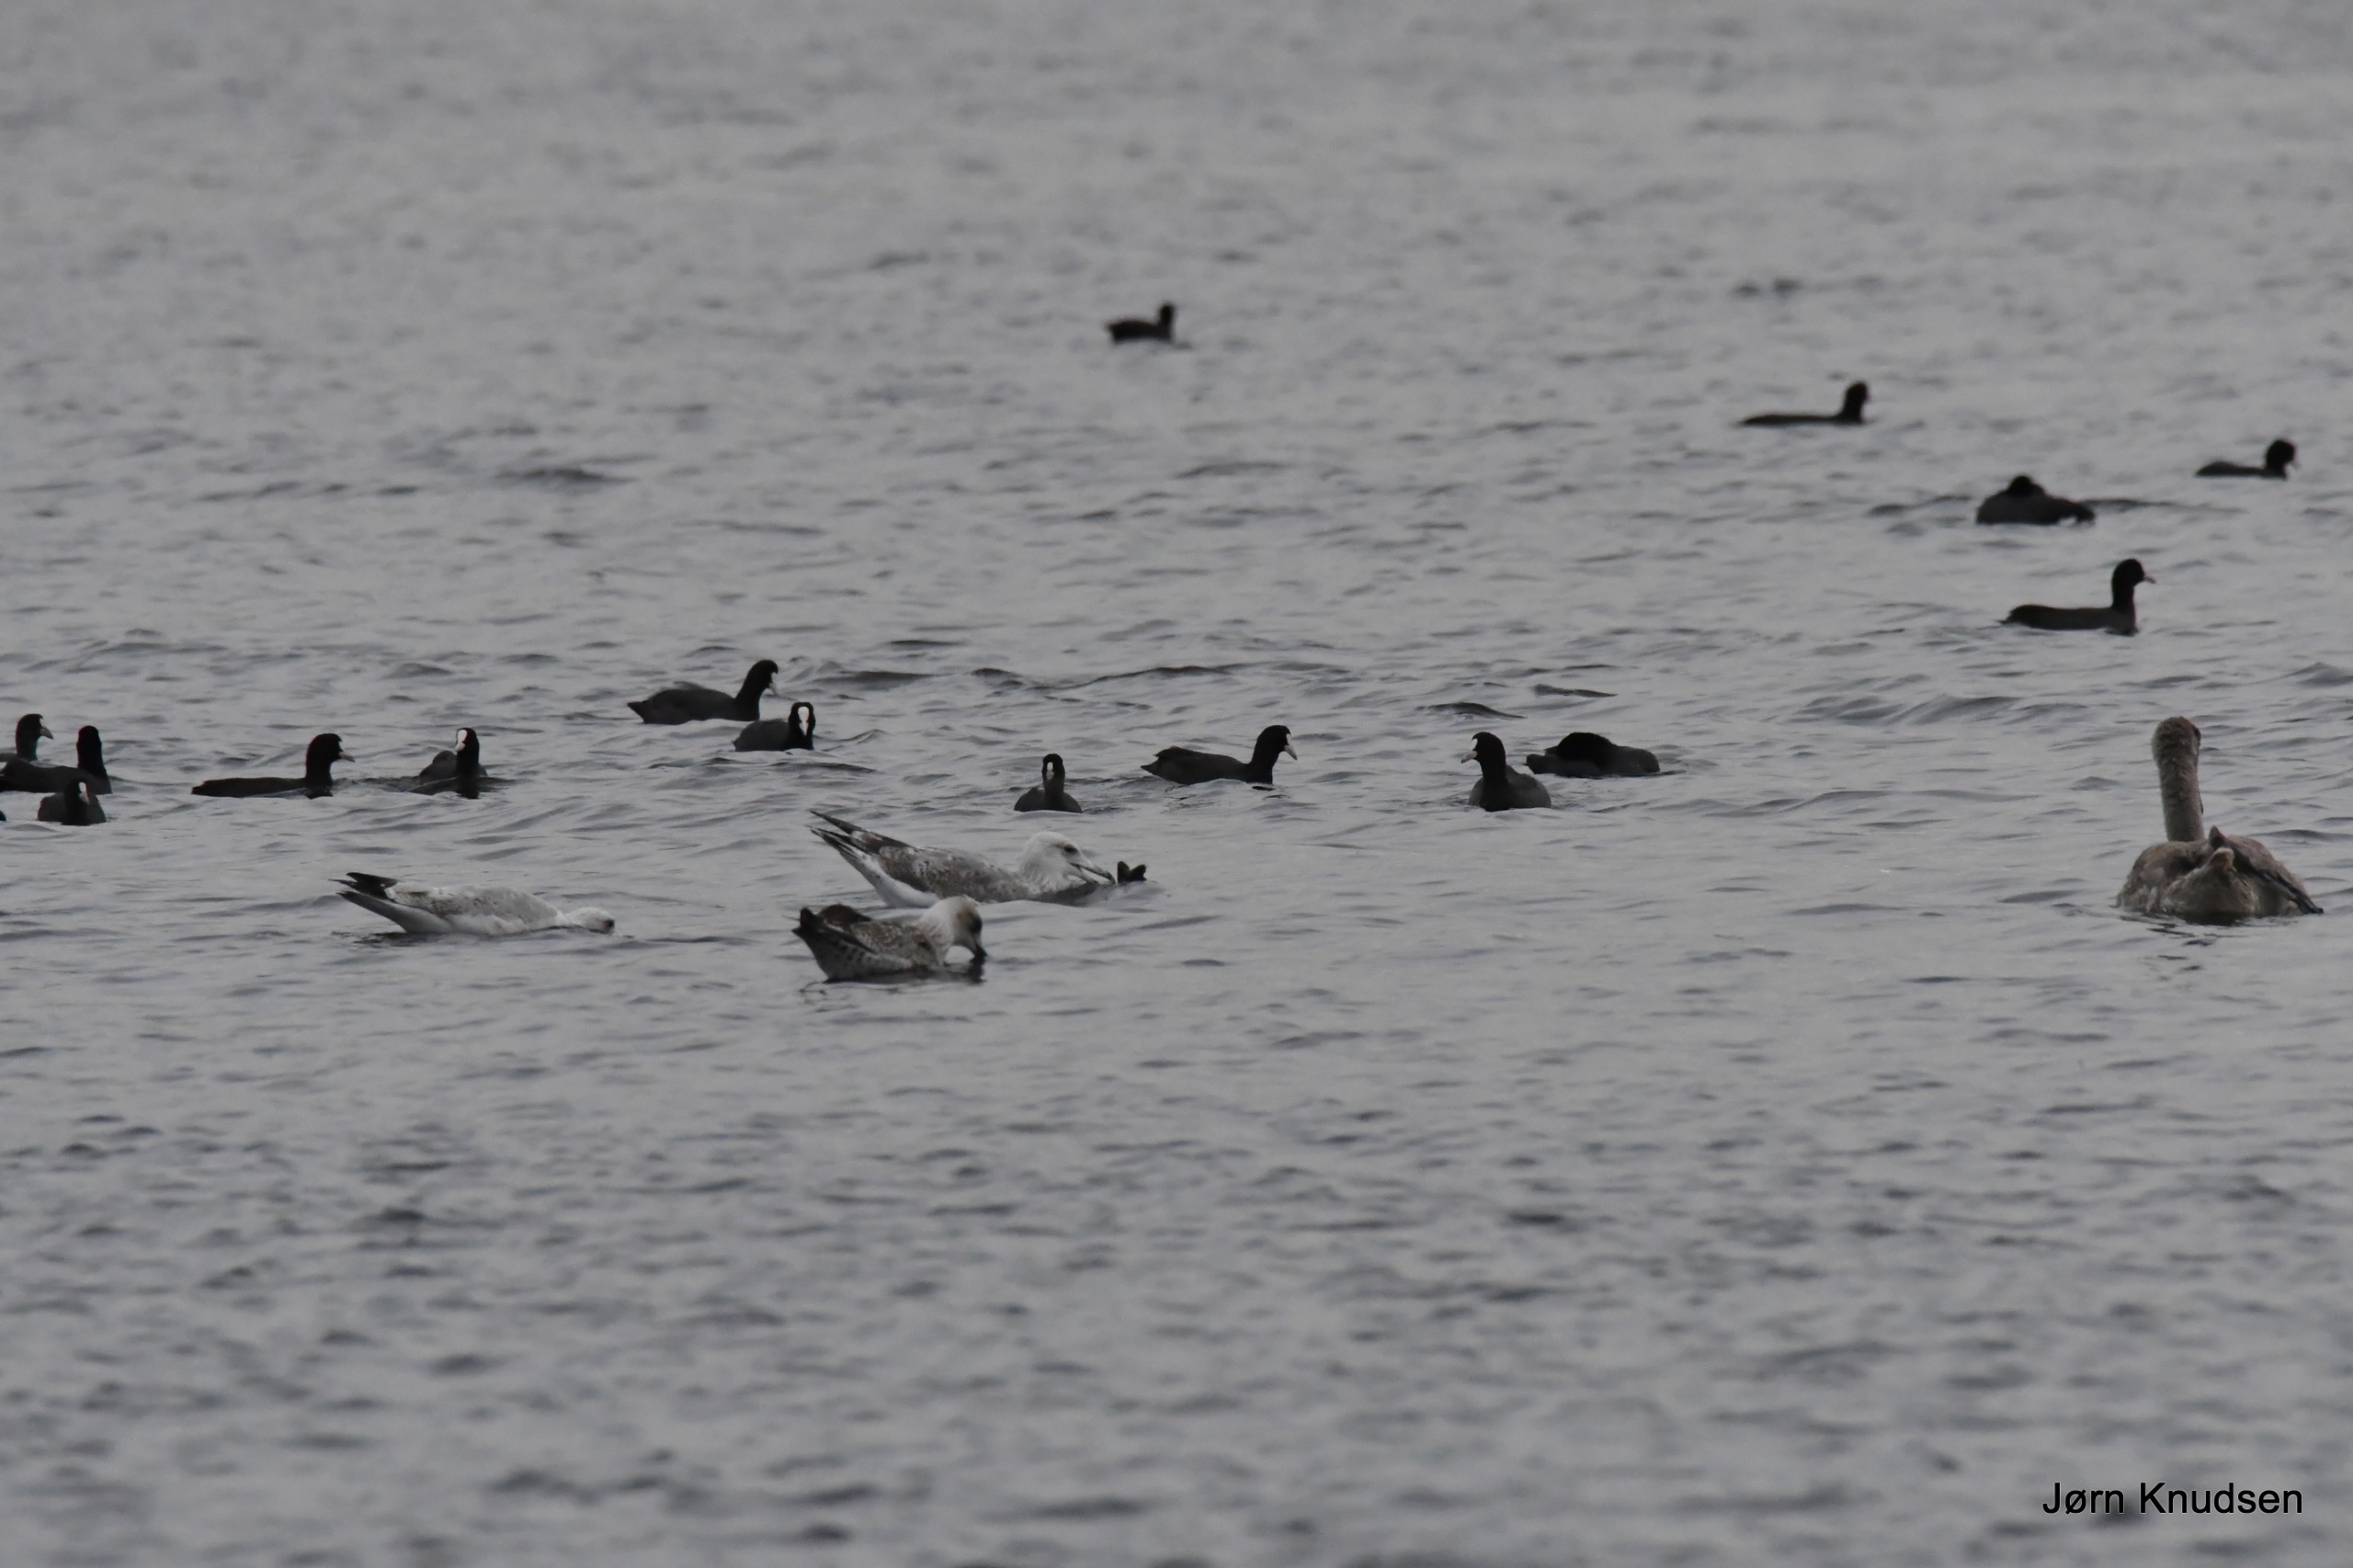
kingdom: Animalia
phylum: Chordata
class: Aves
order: Gruiformes
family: Rallidae
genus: Fulica
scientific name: Fulica atra
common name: Blishøne
